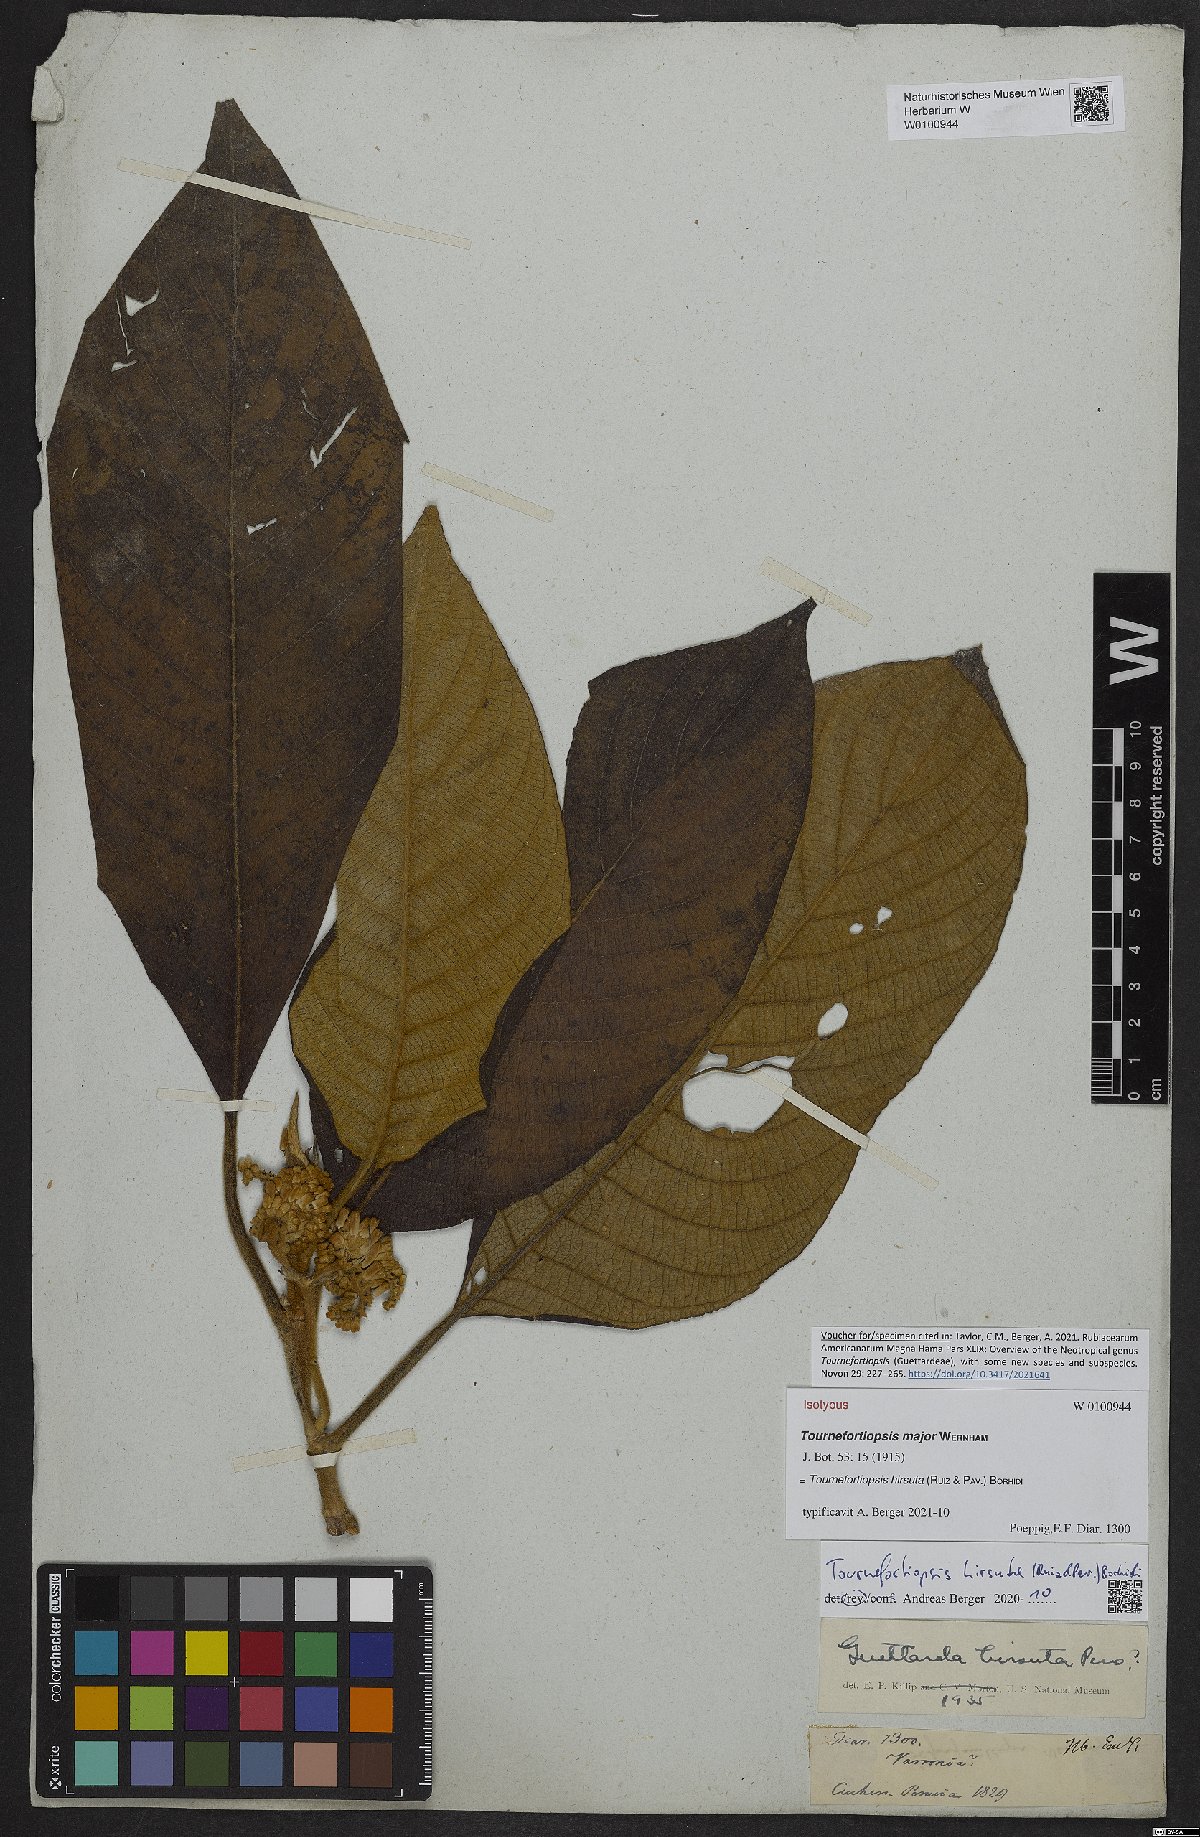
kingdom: Plantae
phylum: Tracheophyta
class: Magnoliopsida
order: Gentianales
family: Rubiaceae
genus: Tournefortiopsis
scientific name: Tournefortiopsis hirsuta
